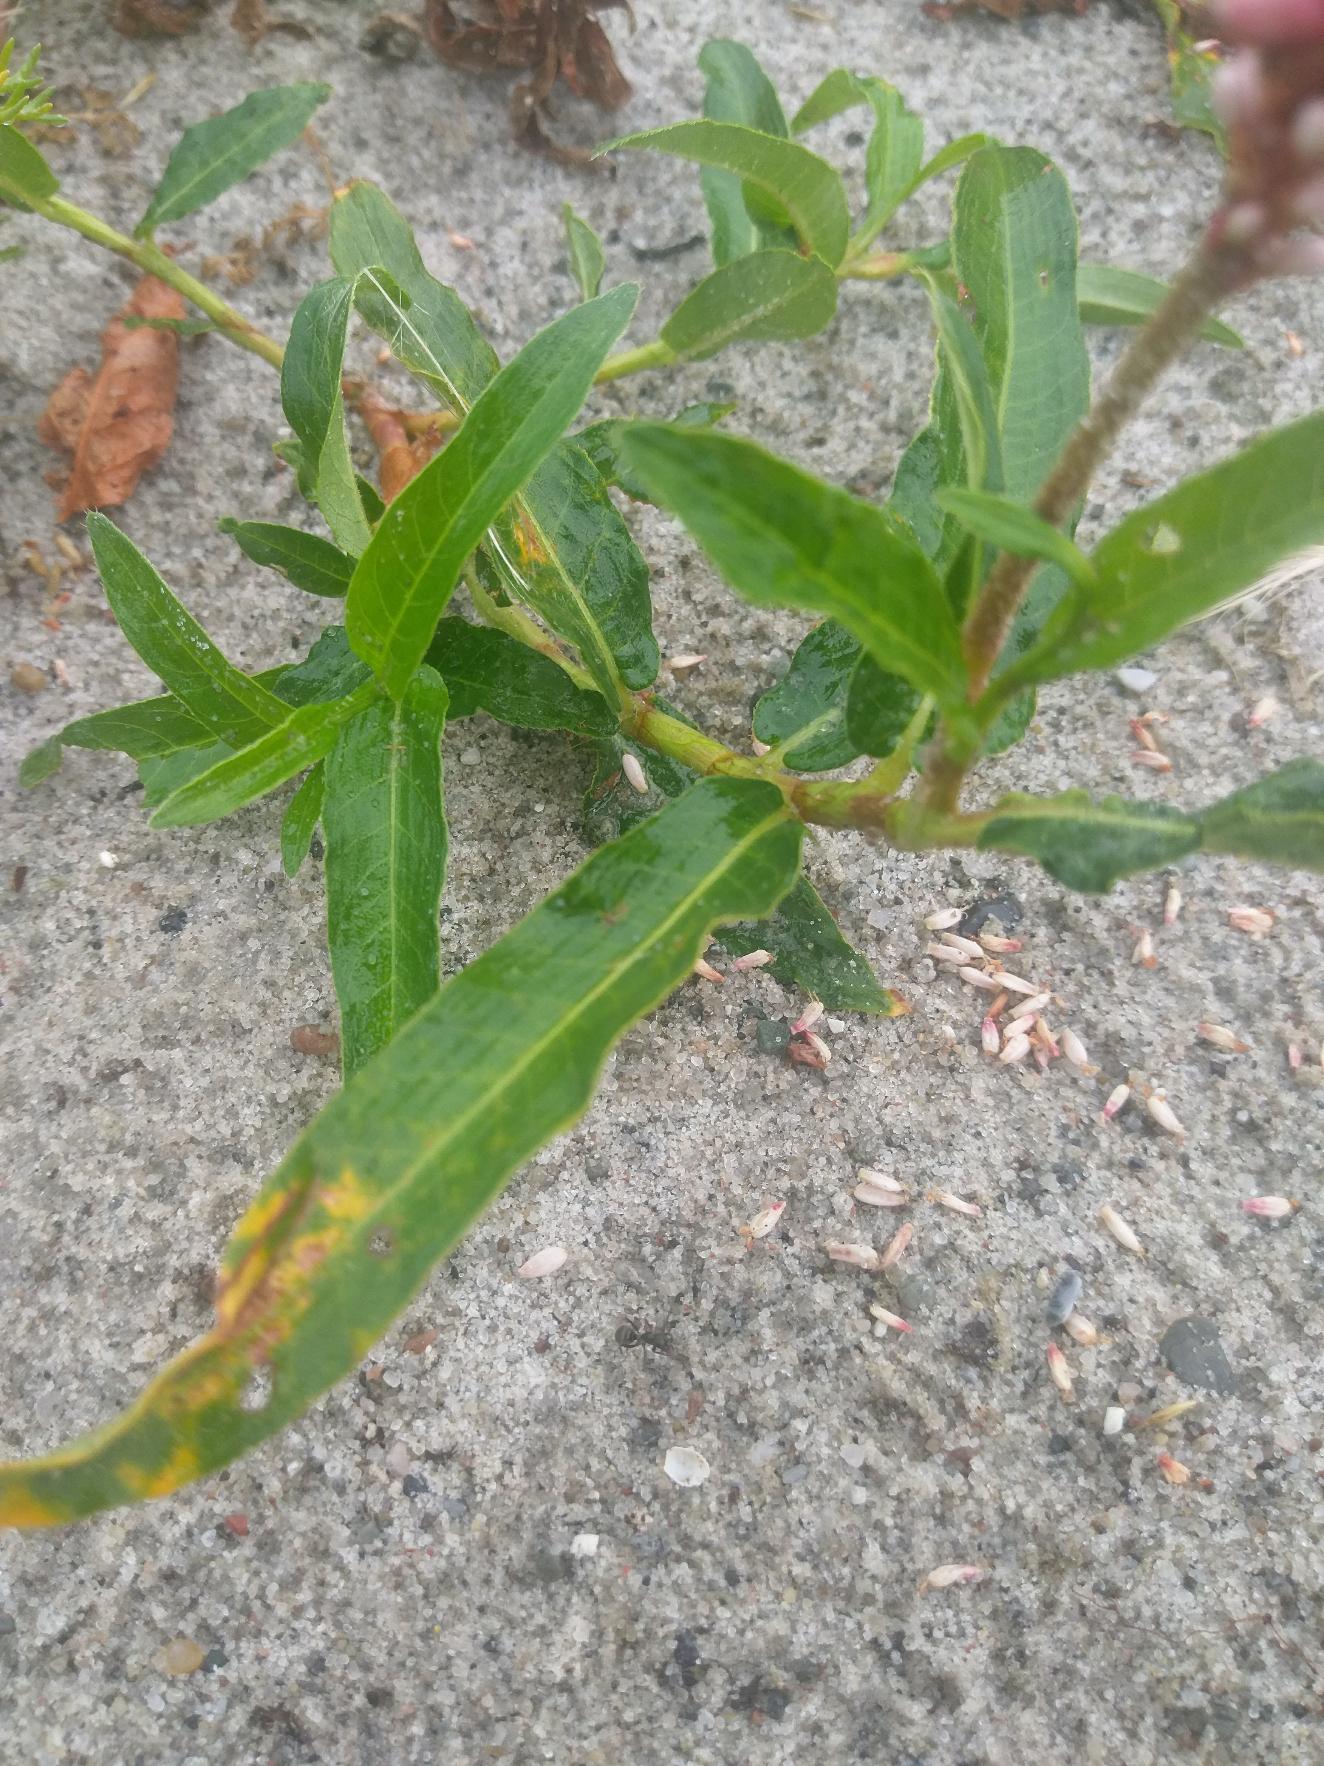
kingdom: Plantae
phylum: Tracheophyta
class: Magnoliopsida
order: Caryophyllales
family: Polygonaceae
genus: Persicaria
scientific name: Persicaria amphibia
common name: Vand-pileurt
